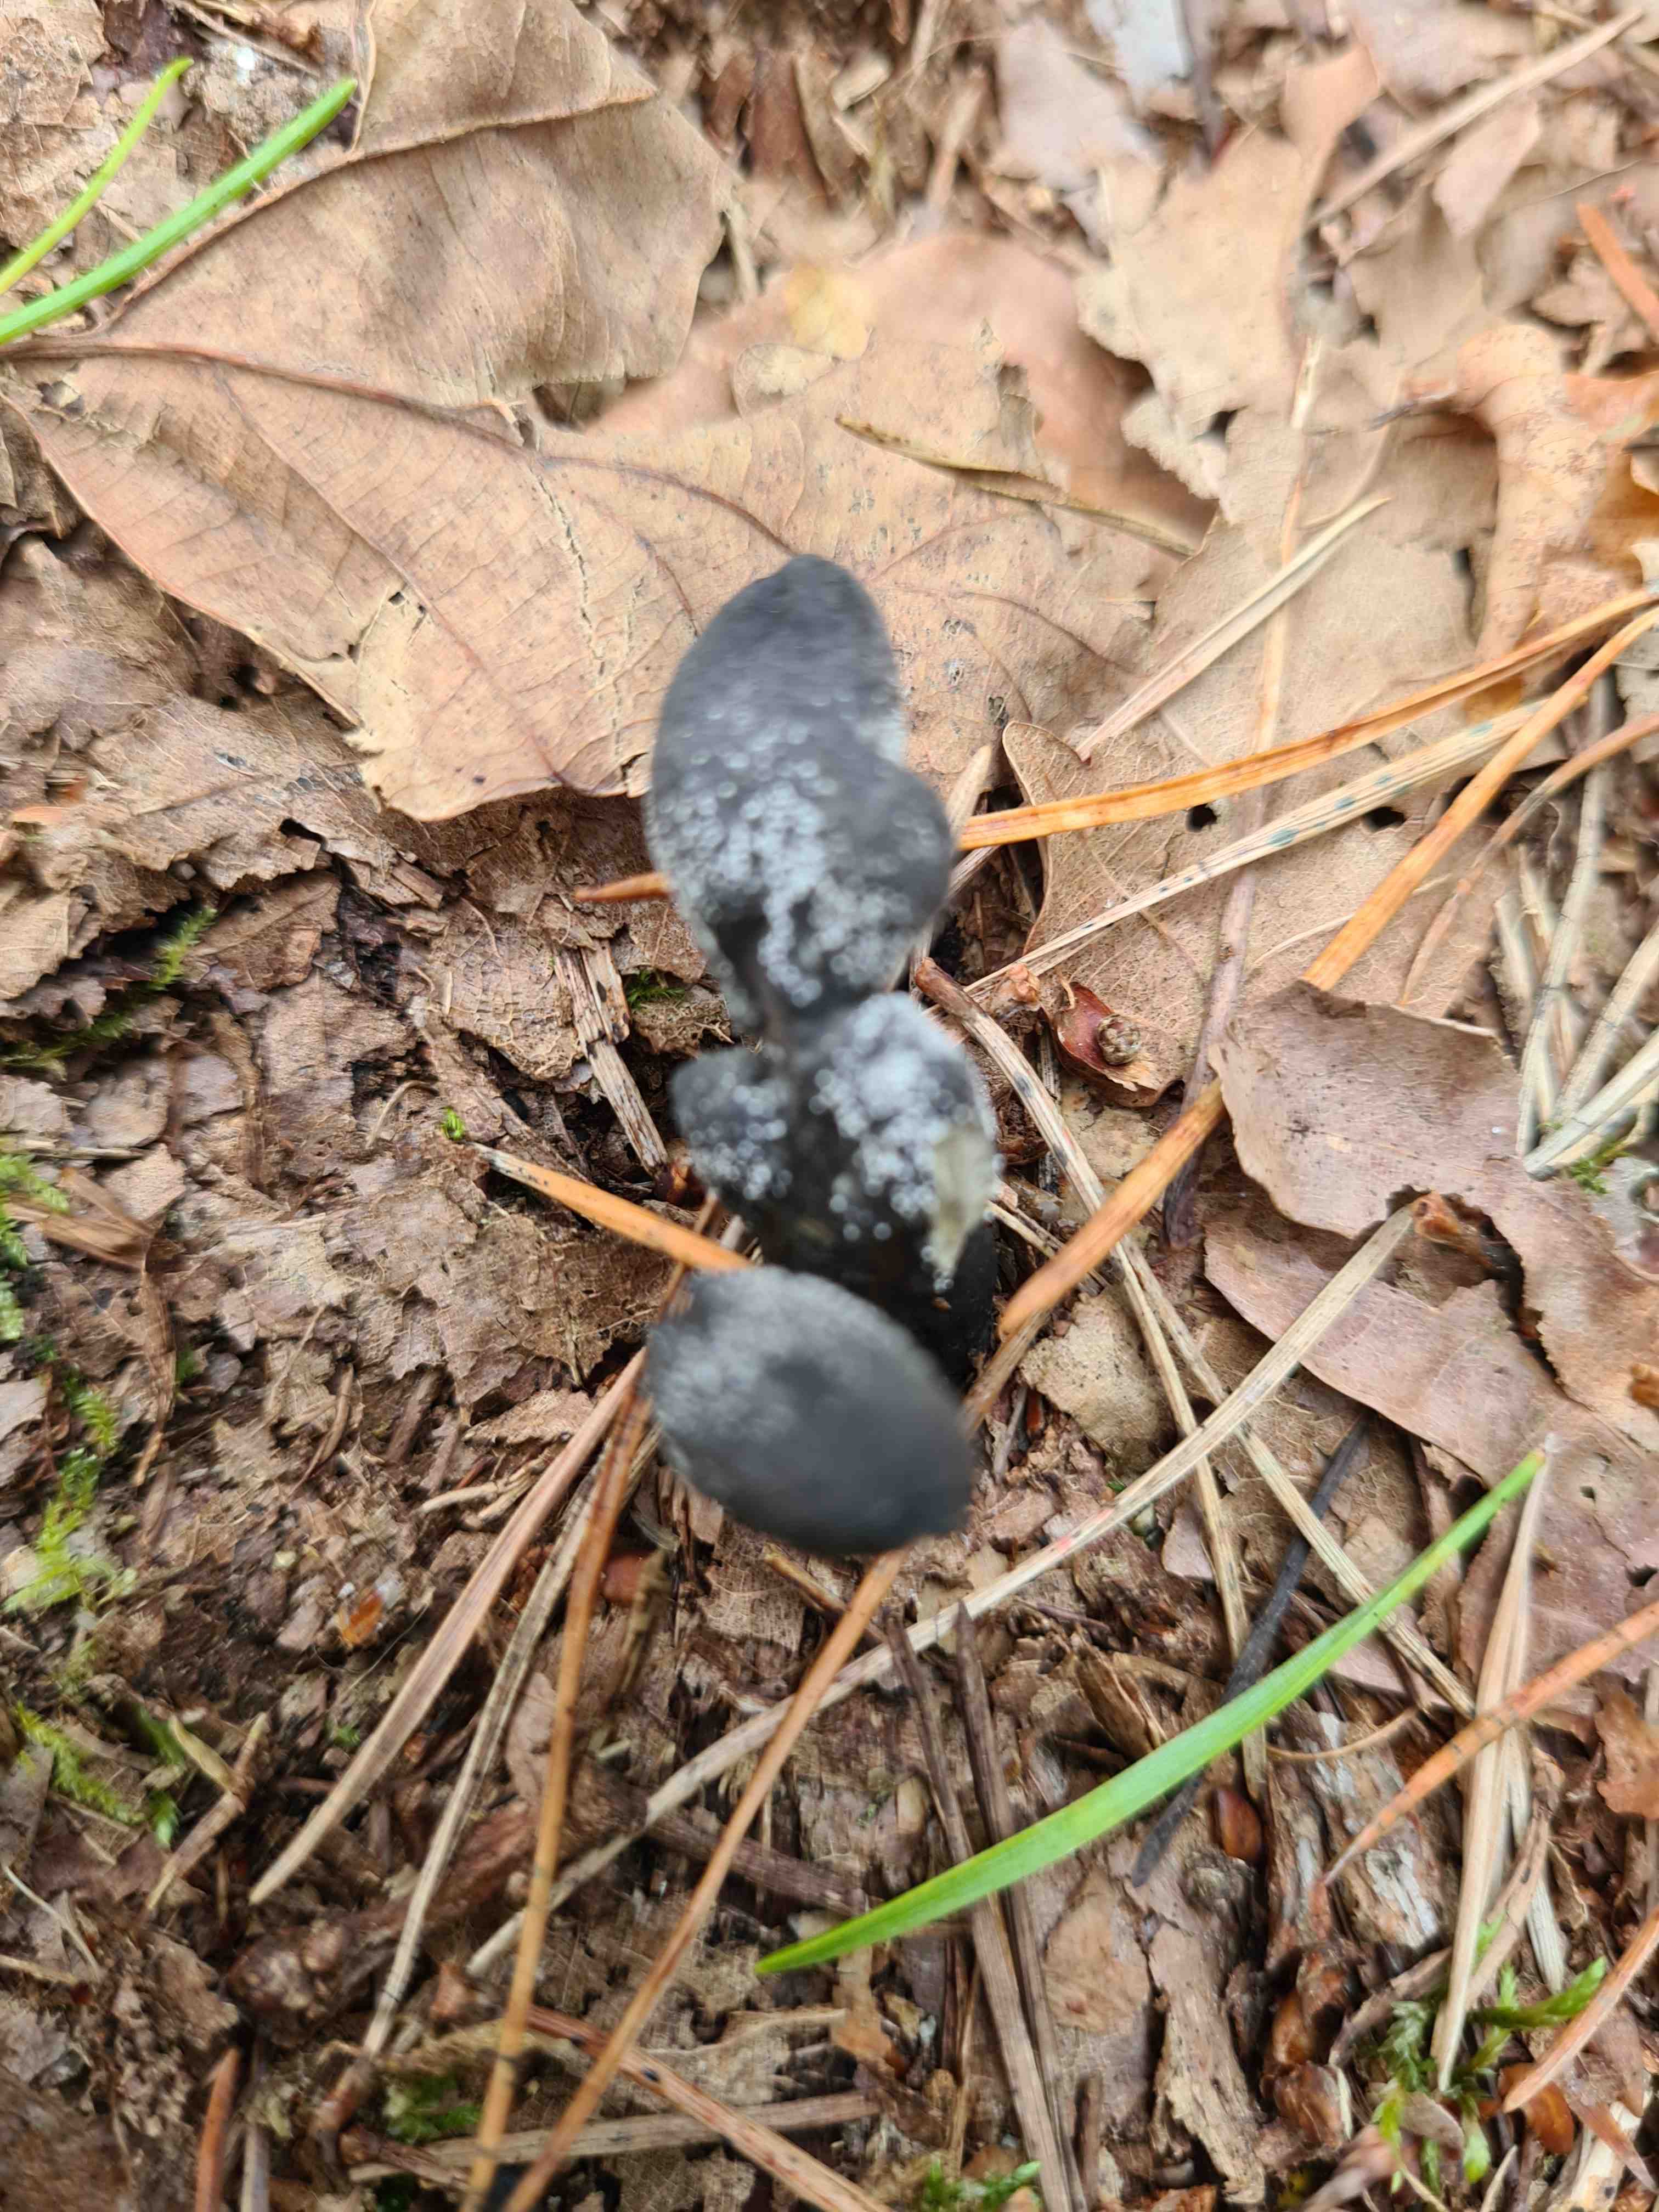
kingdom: Fungi
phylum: Ascomycota
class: Sordariomycetes
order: Hypocreales
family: Ophiocordycipitaceae
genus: Tolypocladium
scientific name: Tolypocladium ophioglossoides
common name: slank snyltekølle
